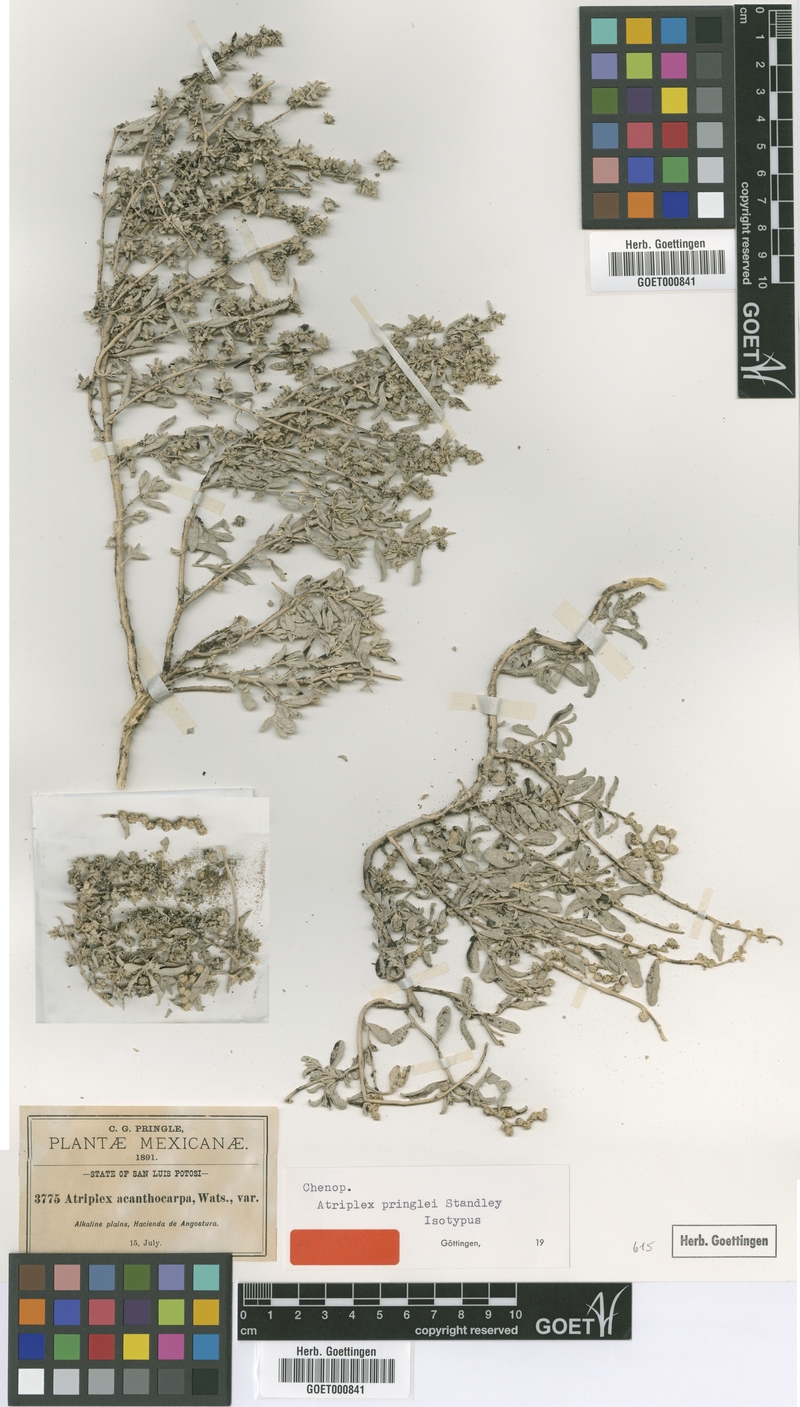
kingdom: Plantae
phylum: Tracheophyta
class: Magnoliopsida
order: Caryophyllales
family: Amaranthaceae
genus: Atriplex
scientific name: Atriplex acanthocarpa
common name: Burscale
